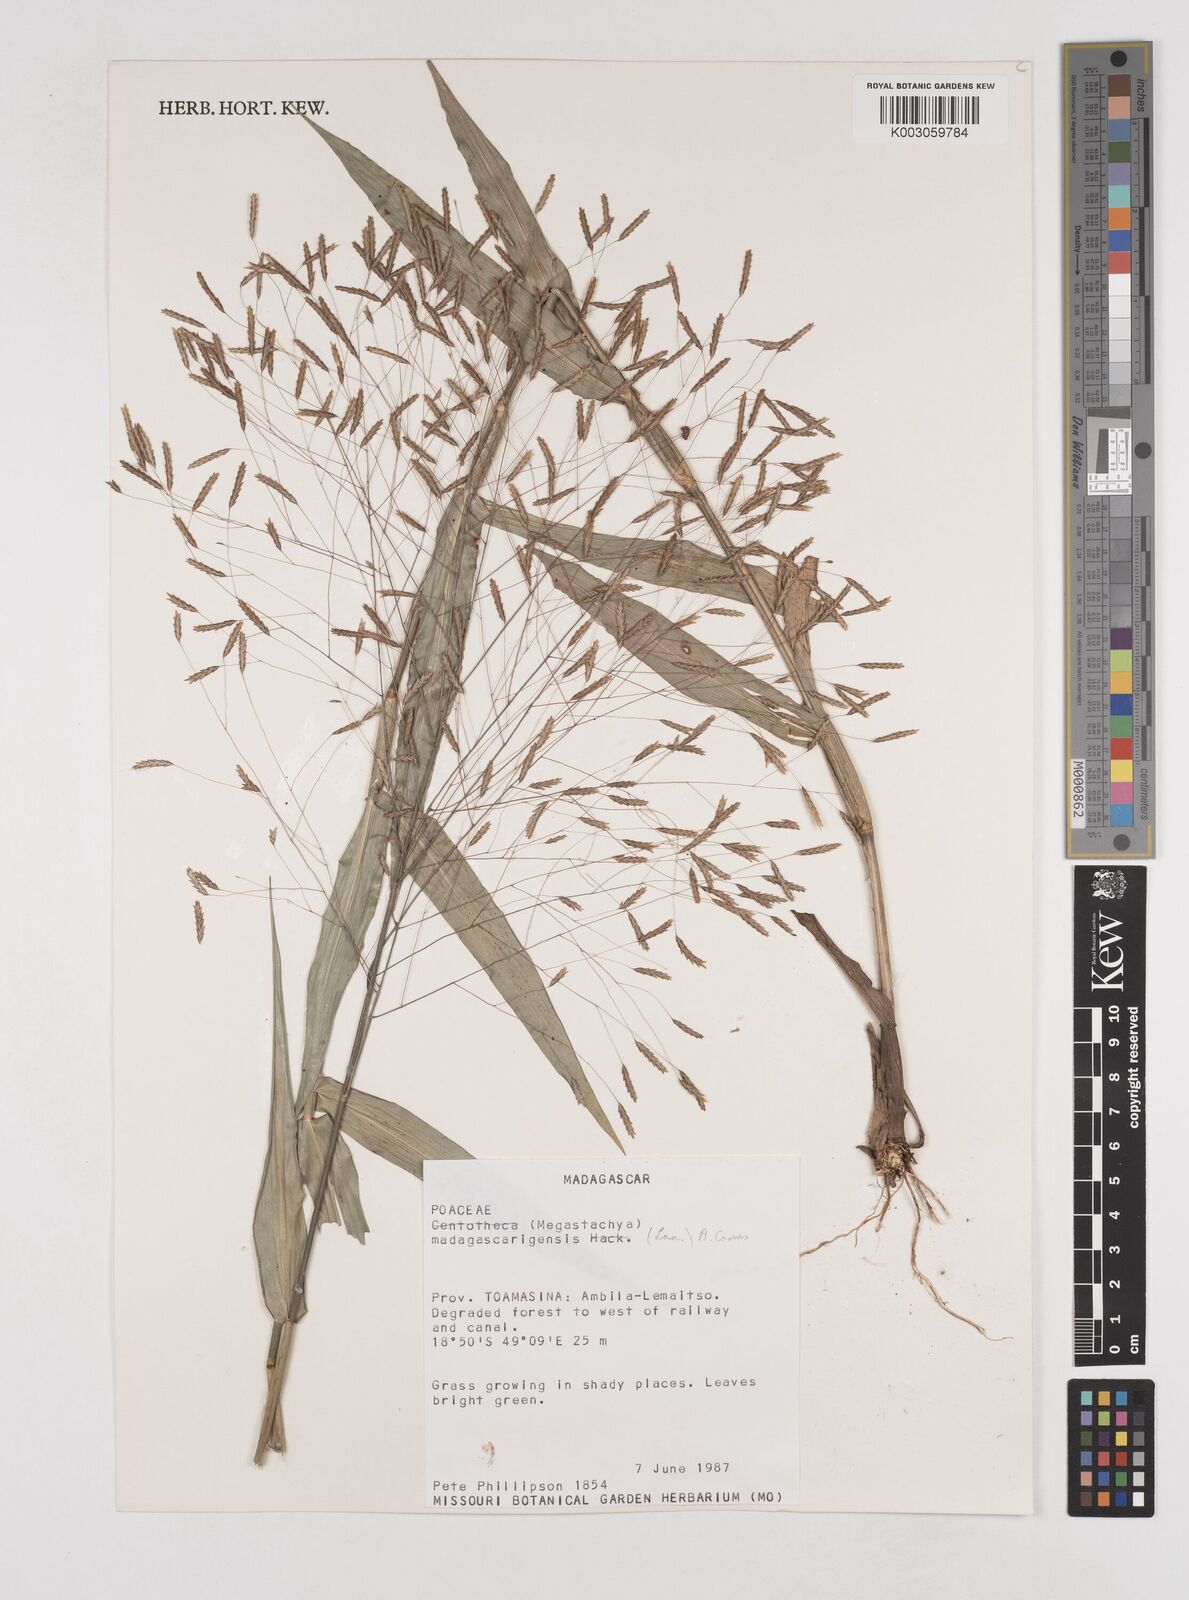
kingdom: Plantae
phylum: Tracheophyta
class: Liliopsida
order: Poales
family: Poaceae
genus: Megastachya
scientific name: Megastachya madagascariensis
